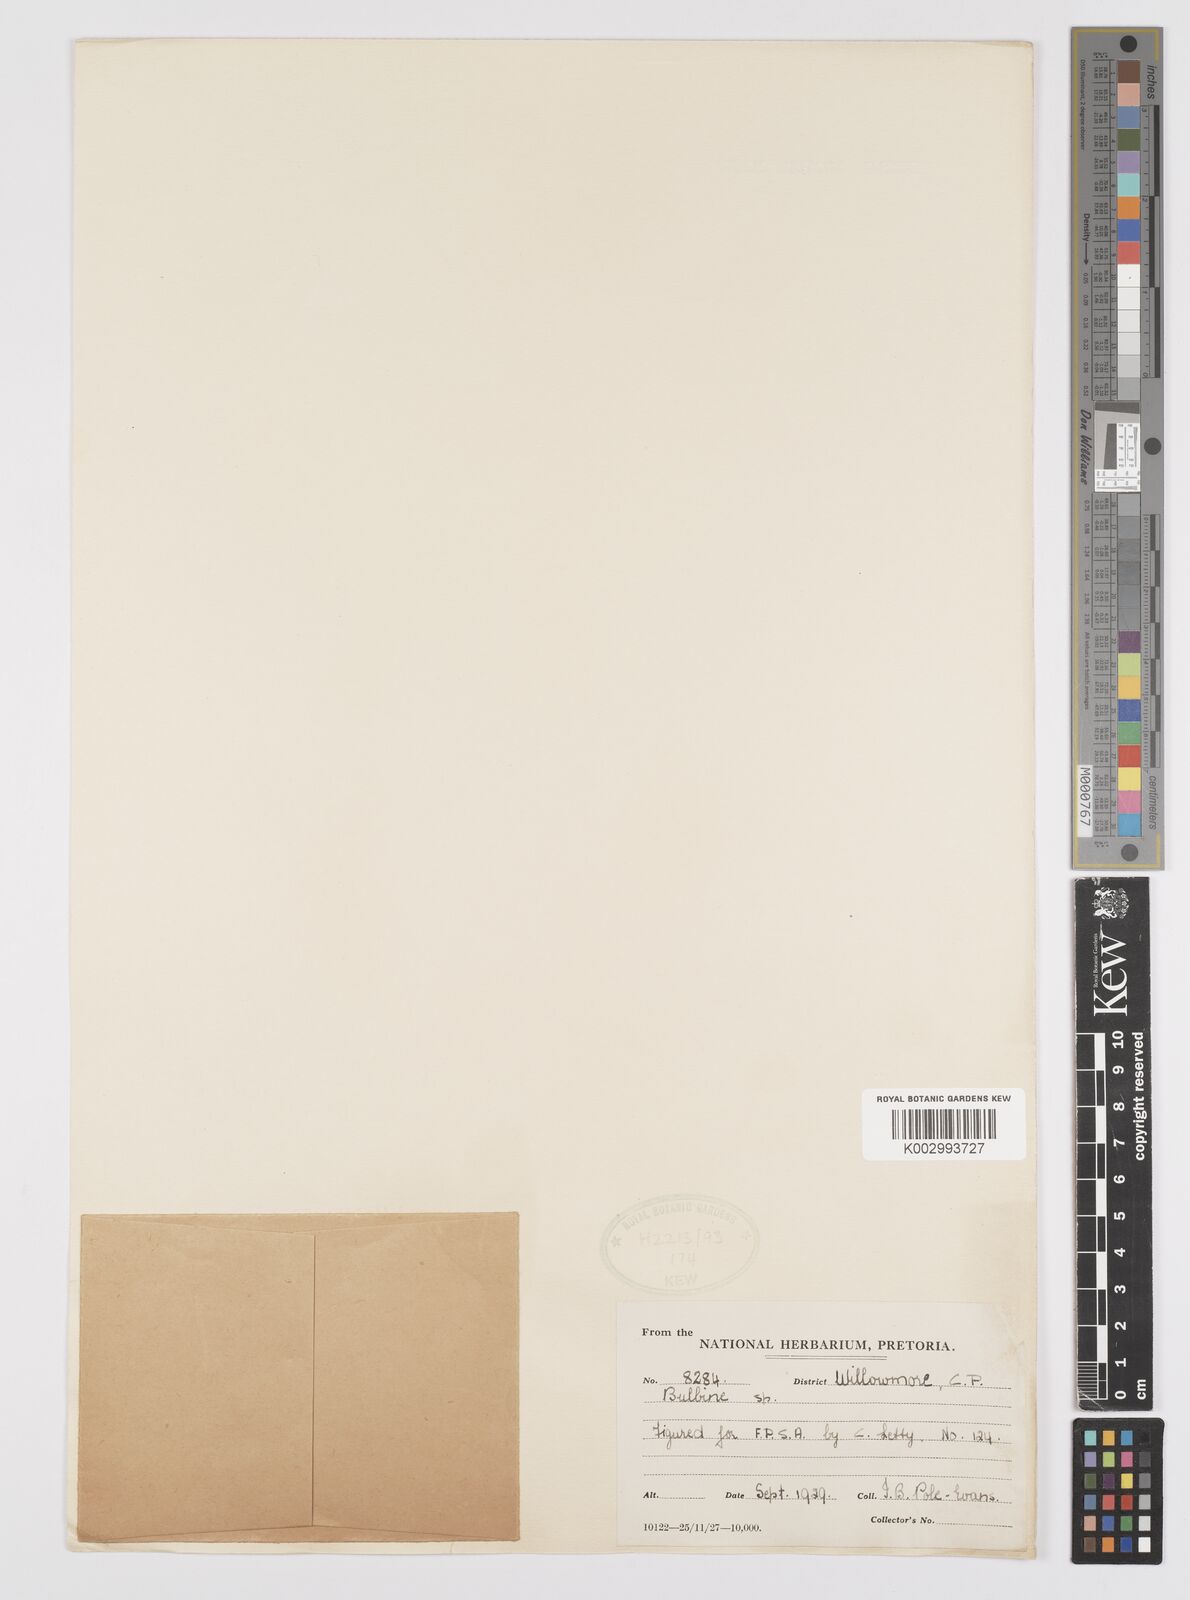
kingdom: Plantae
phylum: Tracheophyta
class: Liliopsida
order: Asparagales
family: Amaryllidaceae
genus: Crinum
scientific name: Crinum
